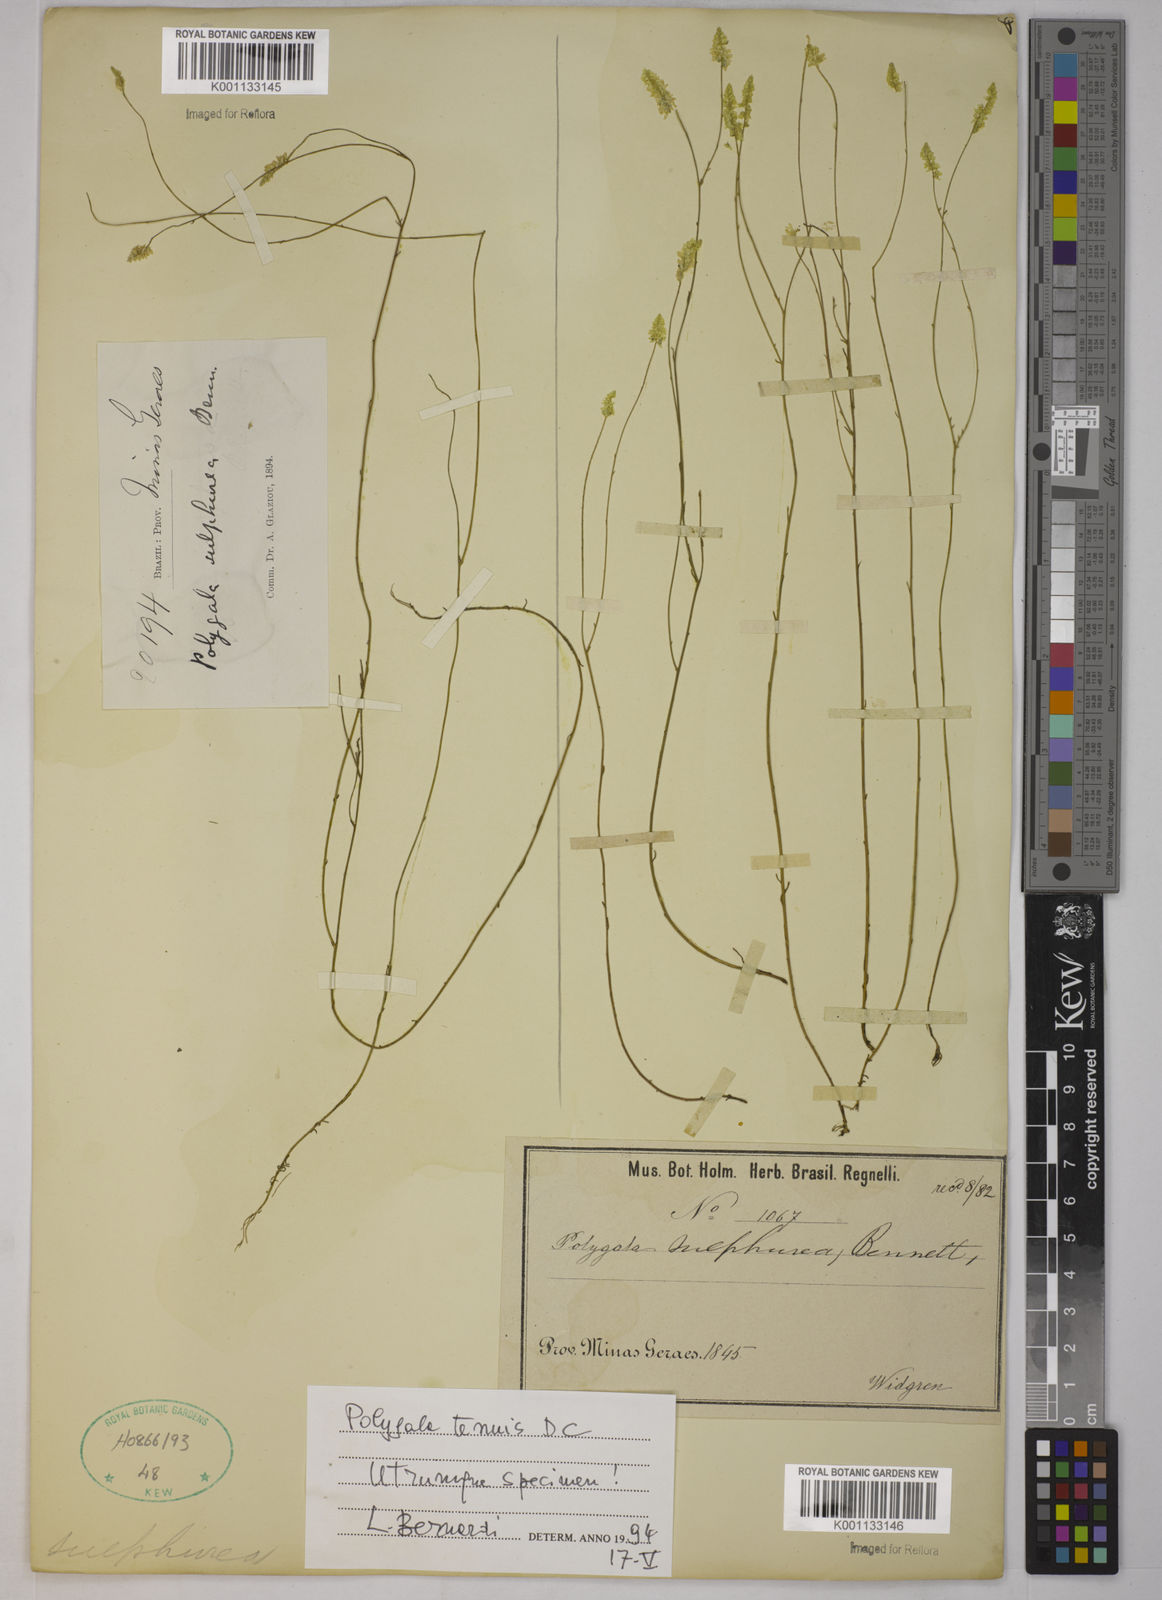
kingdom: Plantae
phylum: Tracheophyta
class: Magnoliopsida
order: Fabales
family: Polygalaceae
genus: Polygala
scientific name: Polygala tenuis
